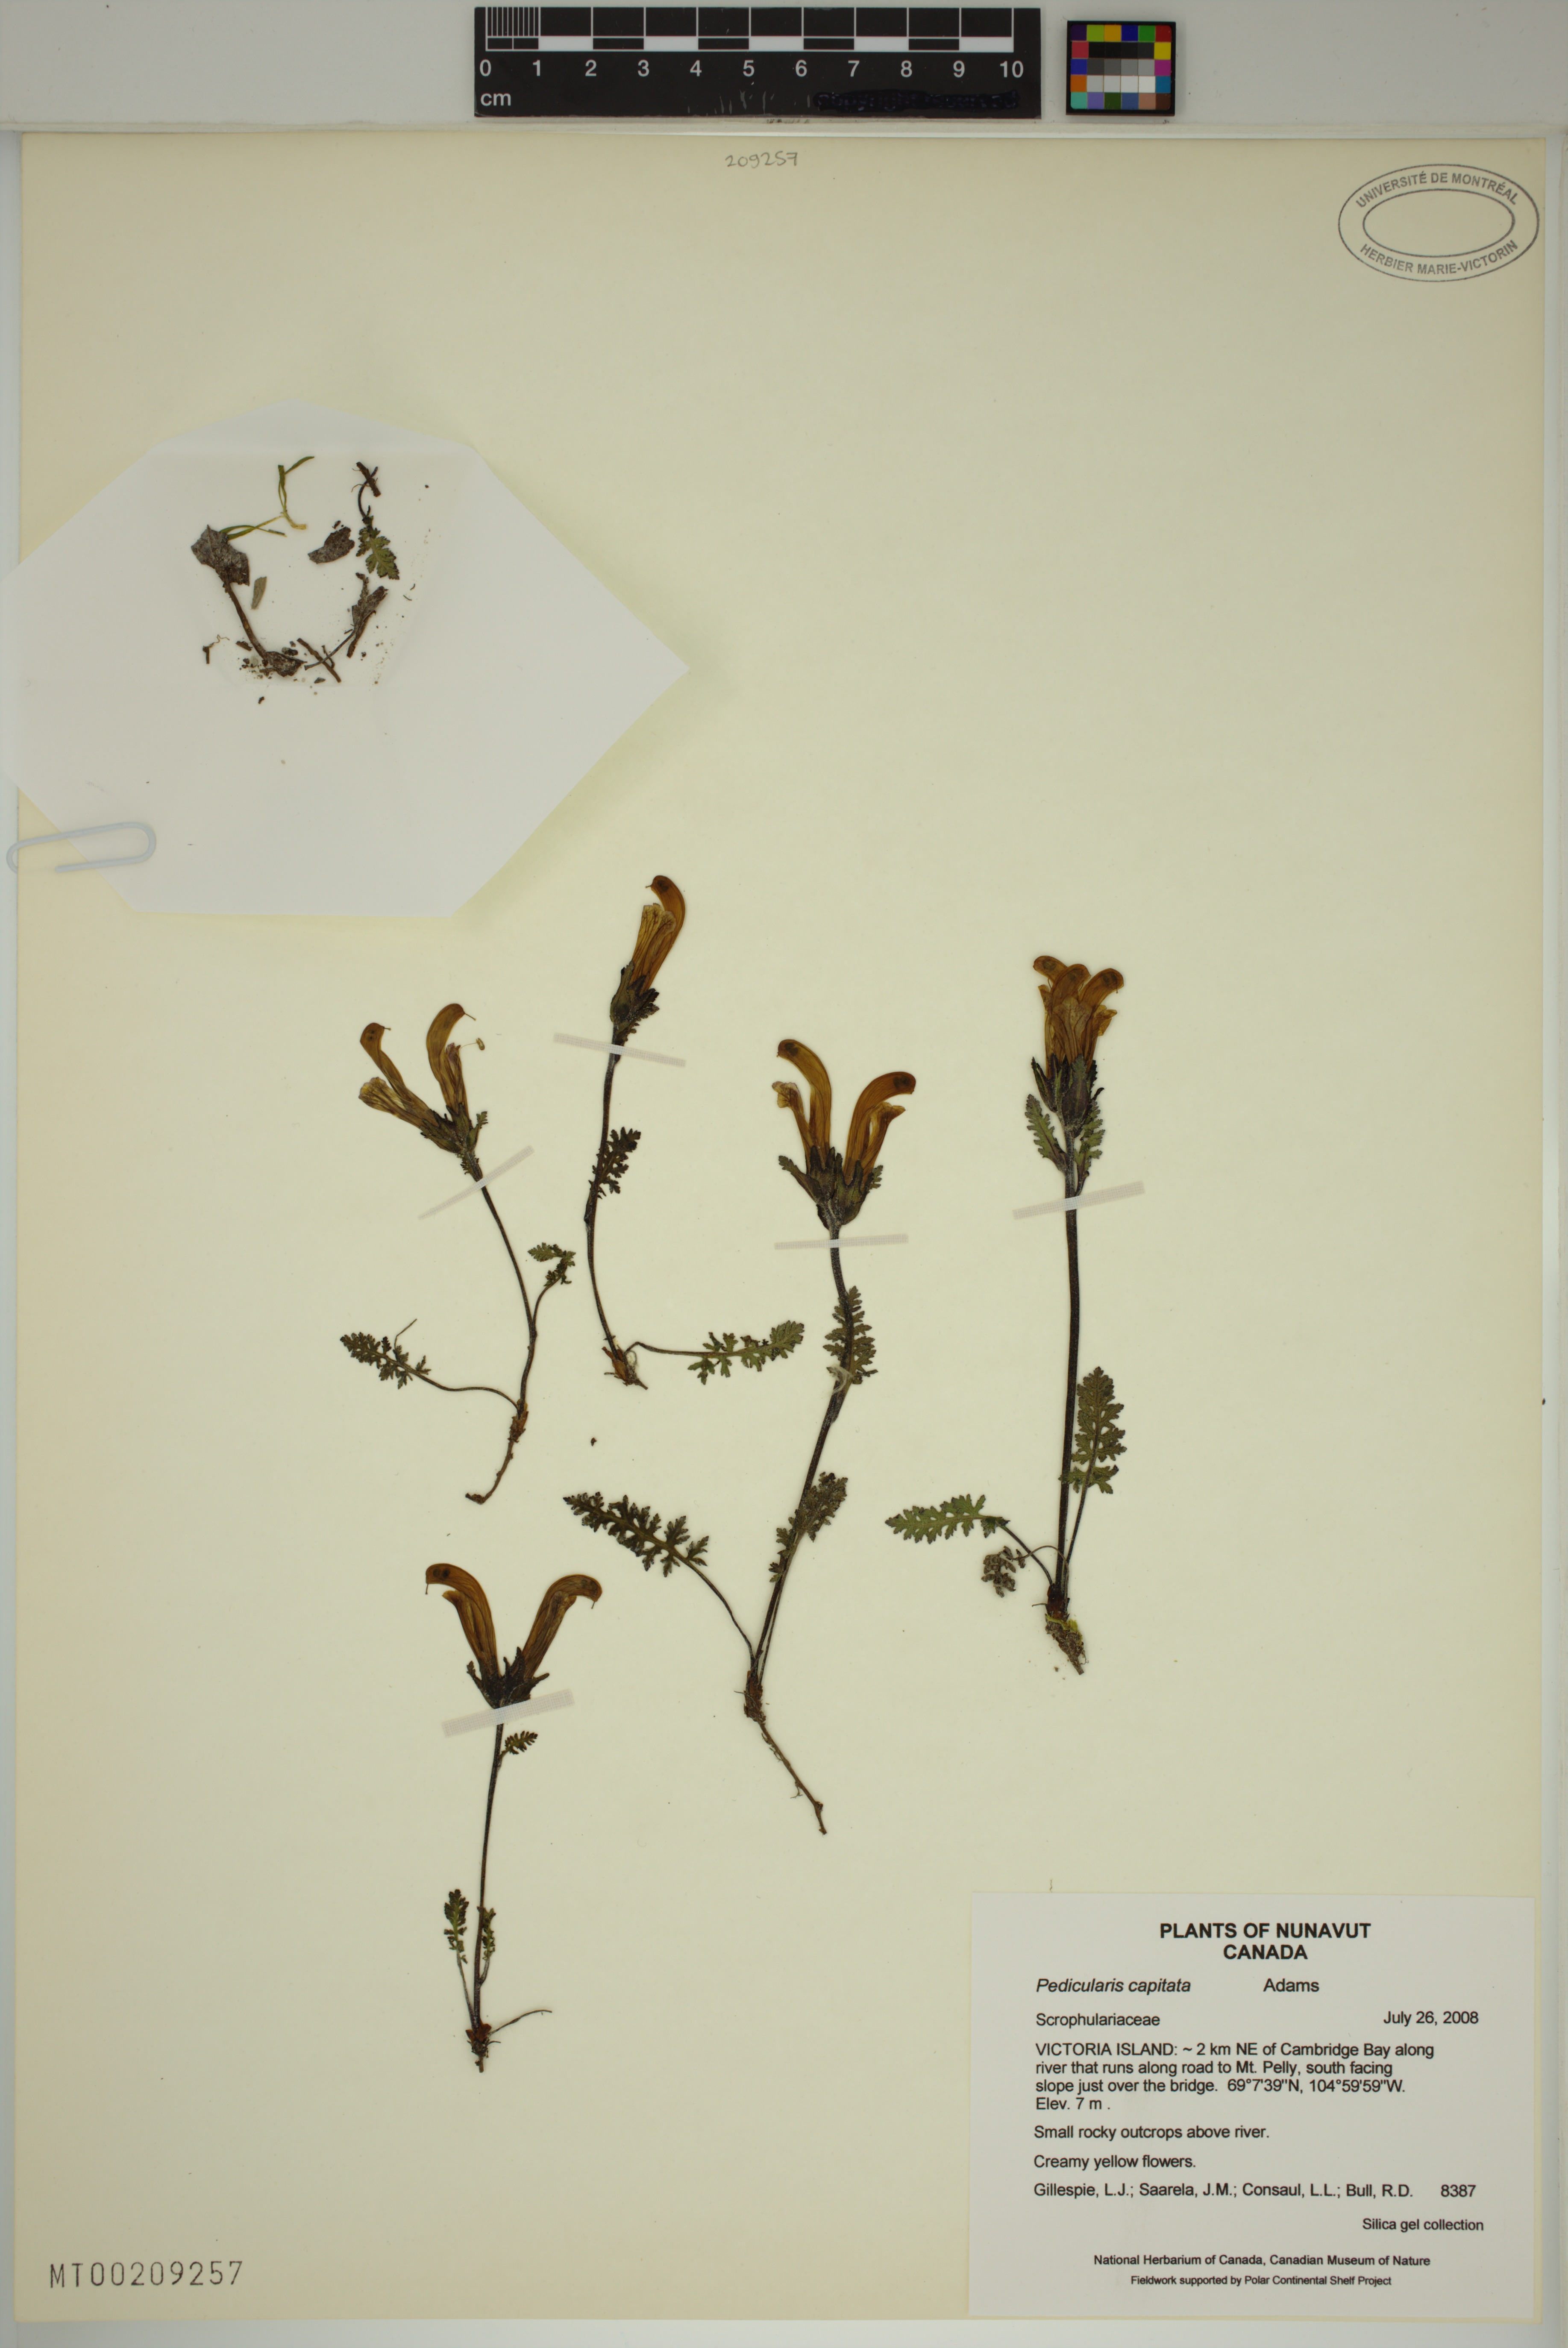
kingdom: Plantae
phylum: Tracheophyta
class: Magnoliopsida
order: Lamiales
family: Orobanchaceae
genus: Pedicularis
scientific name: Pedicularis capitata
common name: Capitate lousewort
